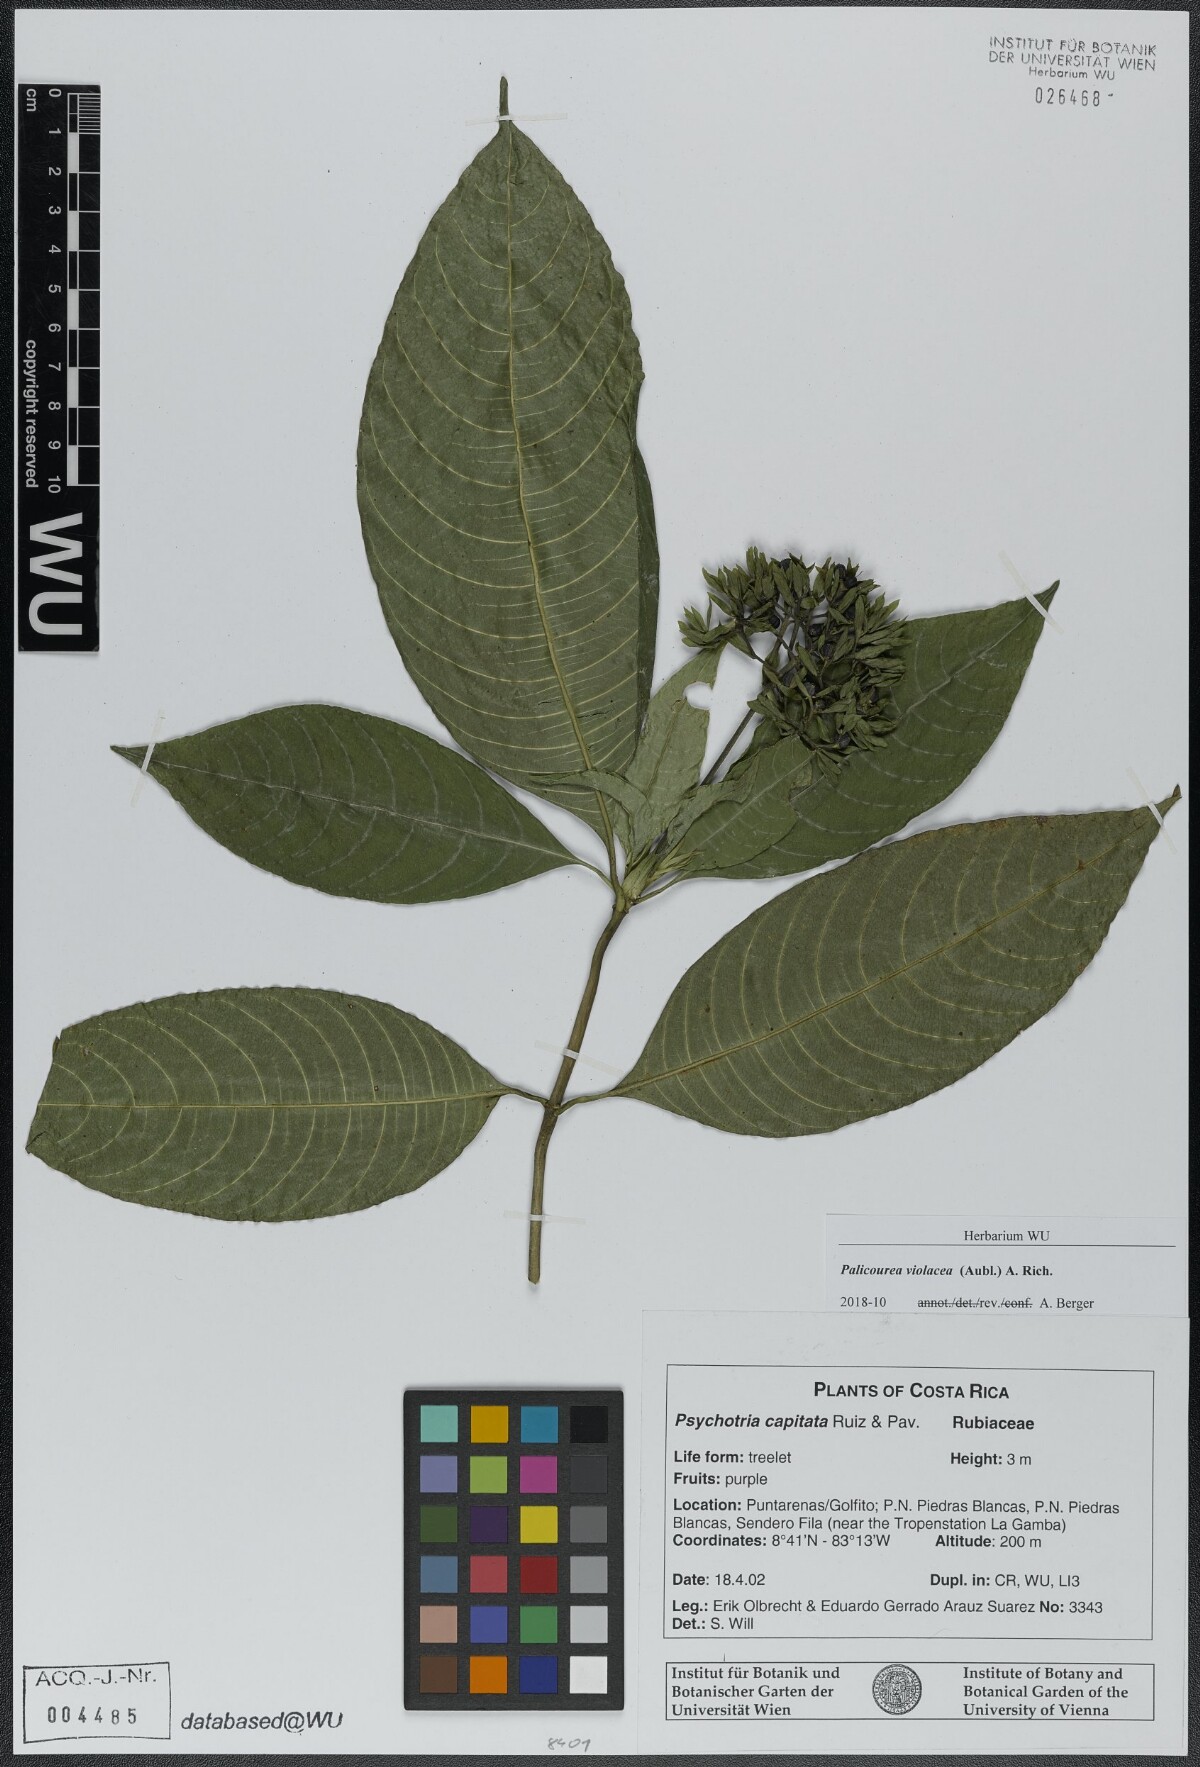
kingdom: Plantae
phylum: Tracheophyta
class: Magnoliopsida
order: Gentianales
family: Rubiaceae
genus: Palicourea
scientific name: Palicourea violacea
